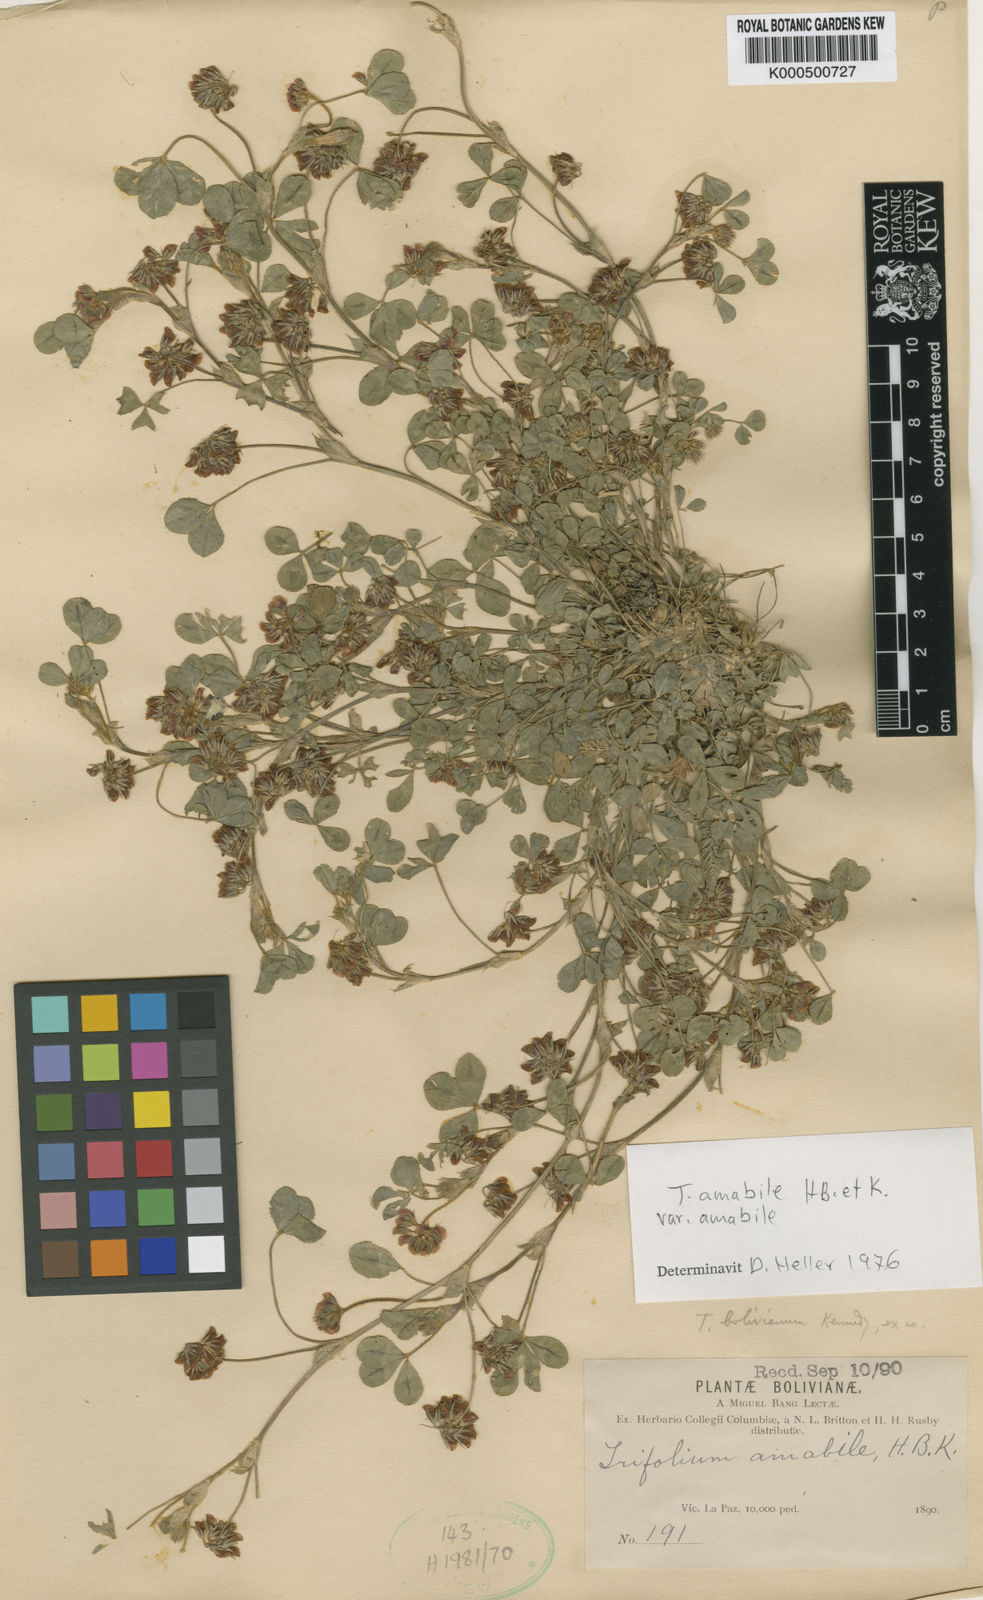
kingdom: Plantae
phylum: Tracheophyta
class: Magnoliopsida
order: Fabales
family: Fabaceae
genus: Trifolium
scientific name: Trifolium amabile
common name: Aztec clover
